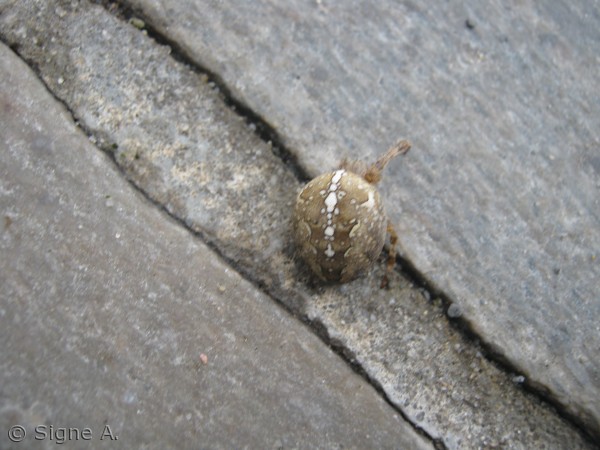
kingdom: Animalia
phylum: Arthropoda
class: Arachnida
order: Araneae
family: Araneidae
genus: Araneus
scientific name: Araneus diadematus
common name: Korsedderkop
